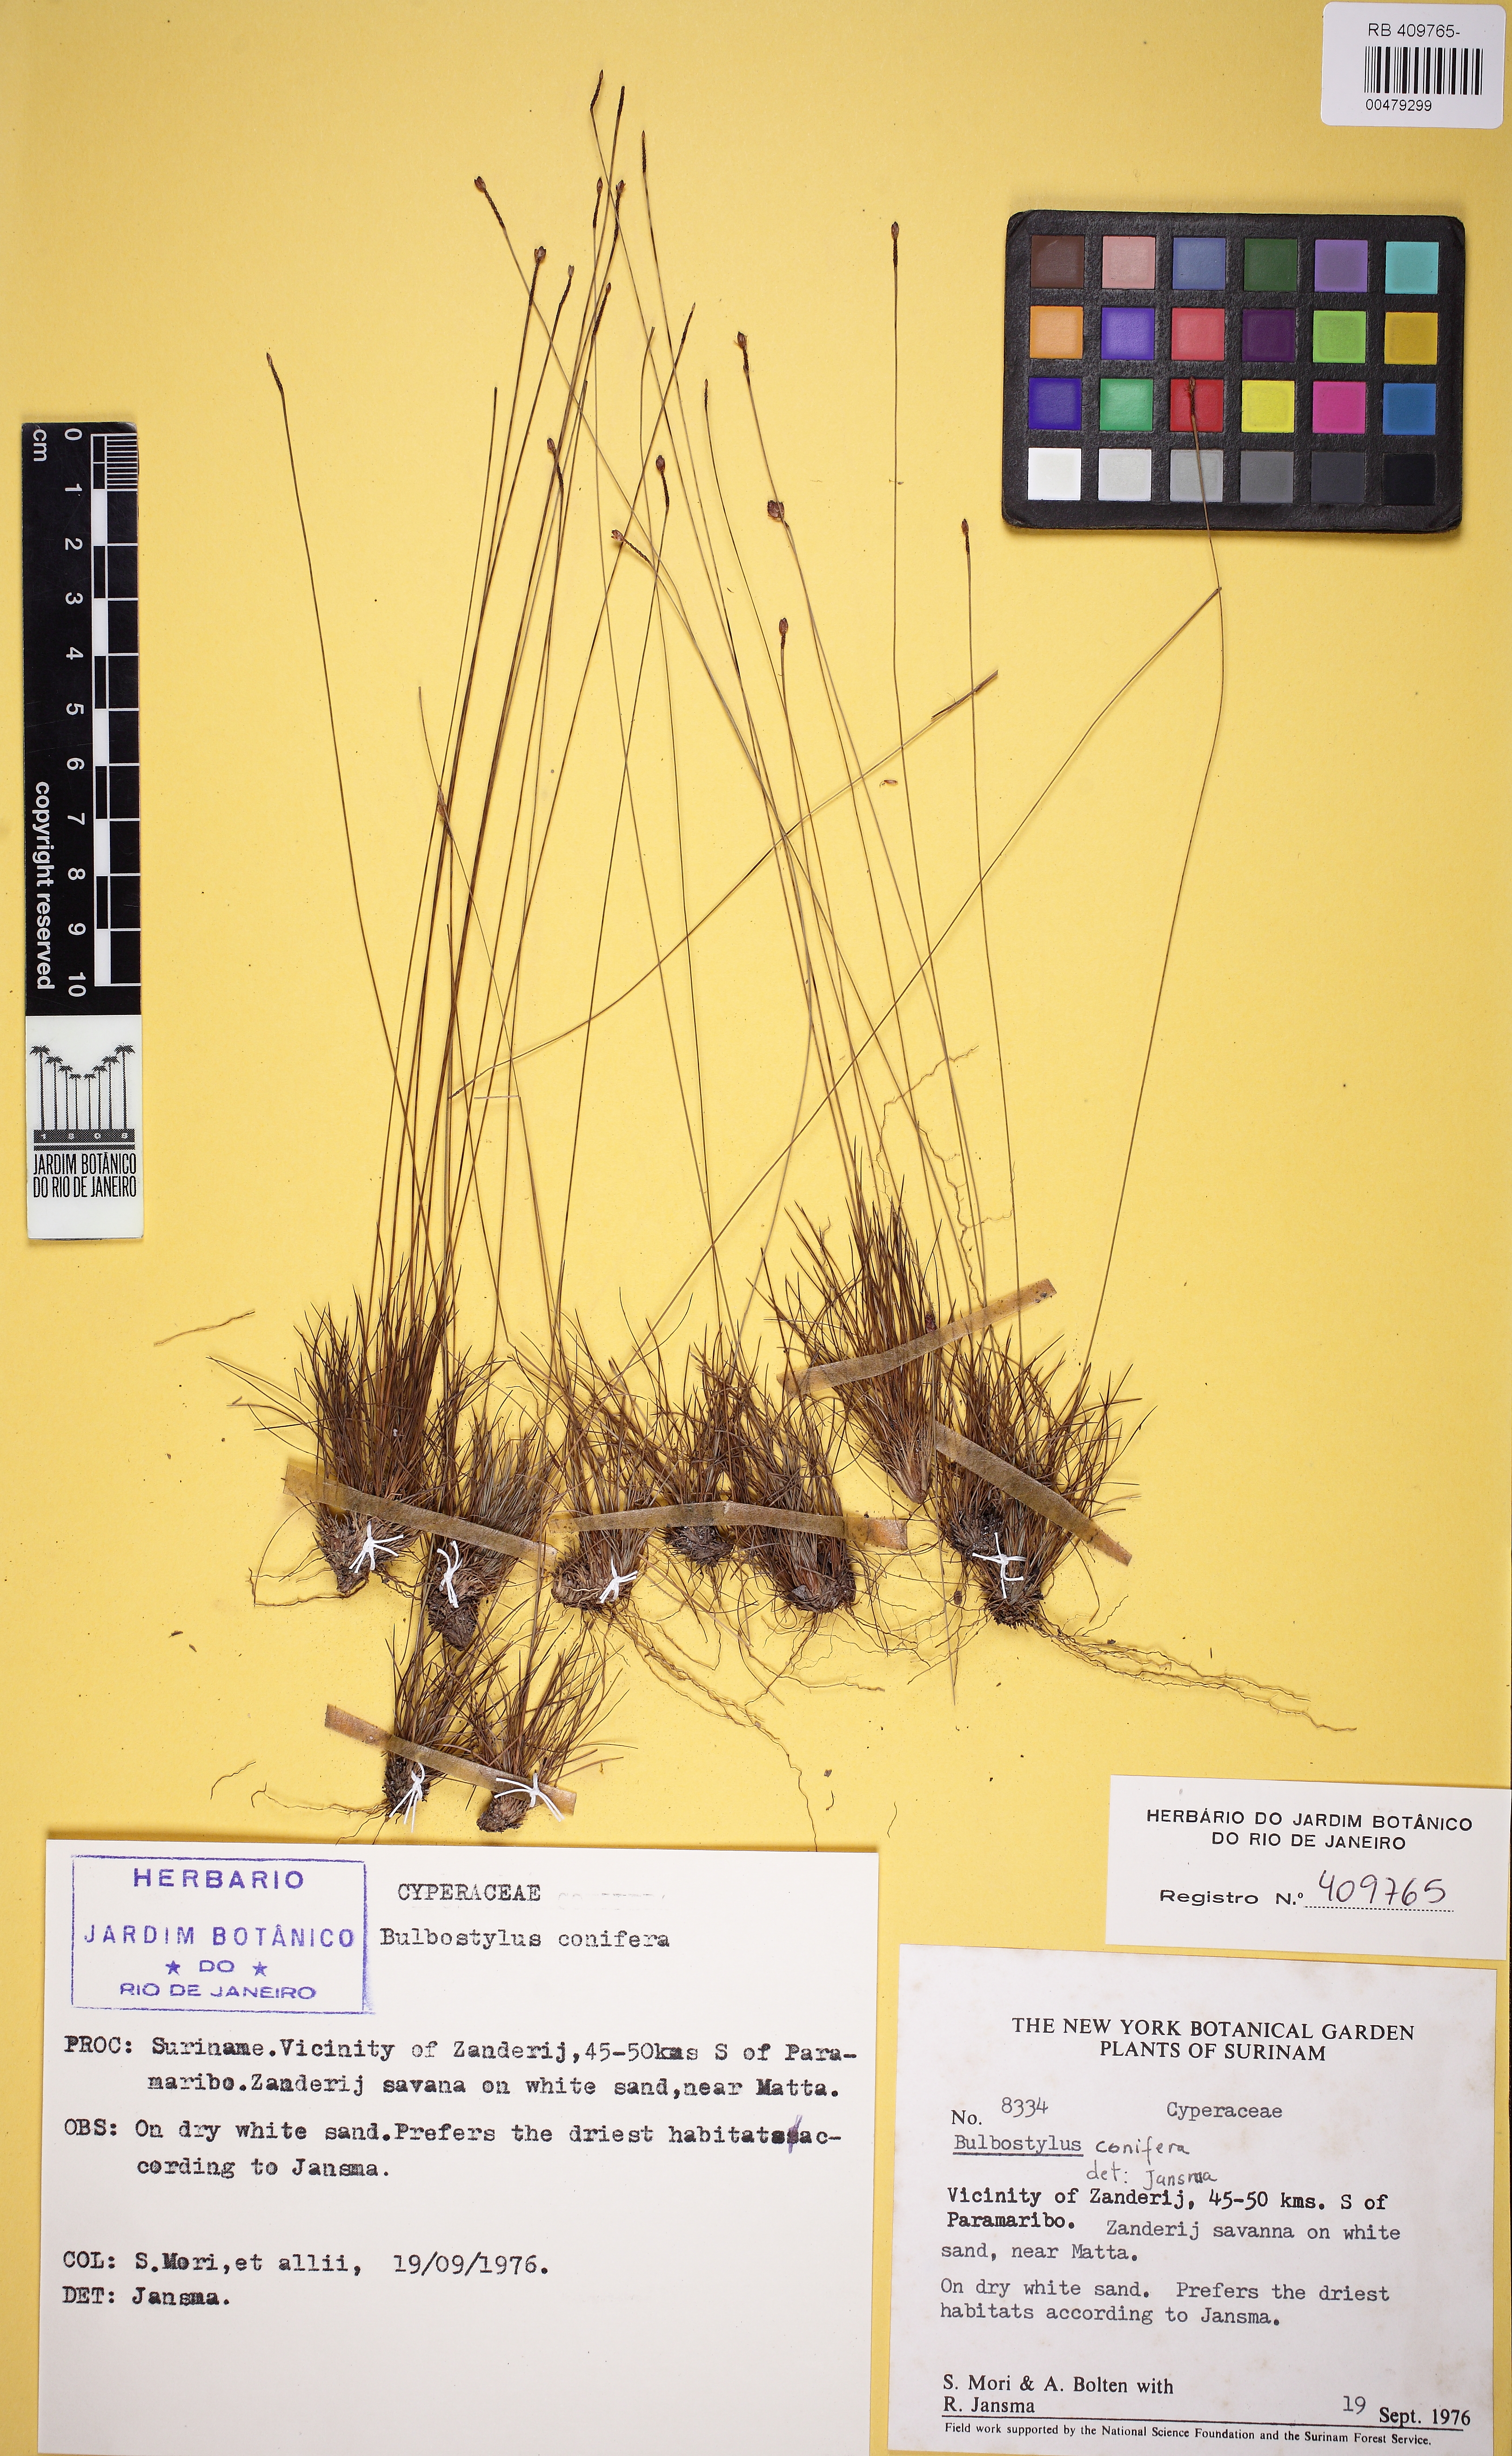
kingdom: Plantae
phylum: Tracheophyta
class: Liliopsida
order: Poales
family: Cyperaceae
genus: Bulbostylis
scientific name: Bulbostylis conifera
